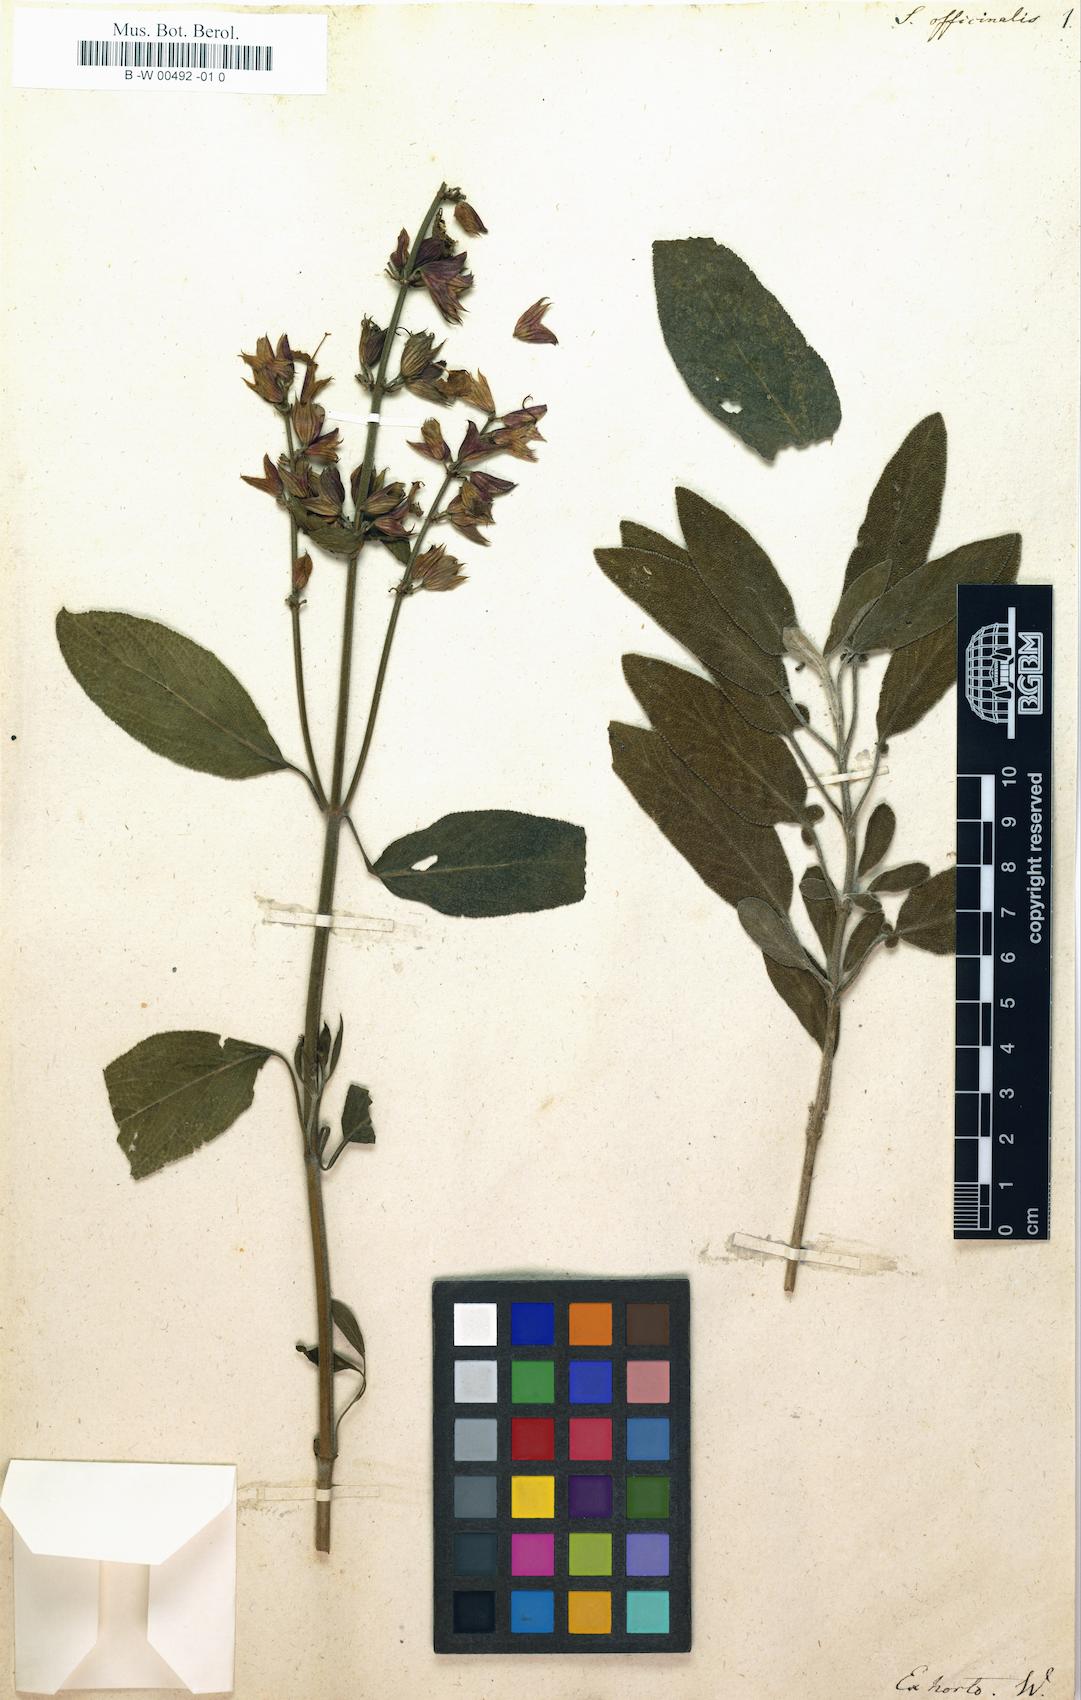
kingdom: Plantae
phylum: Tracheophyta
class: Magnoliopsida
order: Lamiales
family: Lamiaceae
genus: Salvia
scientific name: Salvia officinalis
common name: Sage
